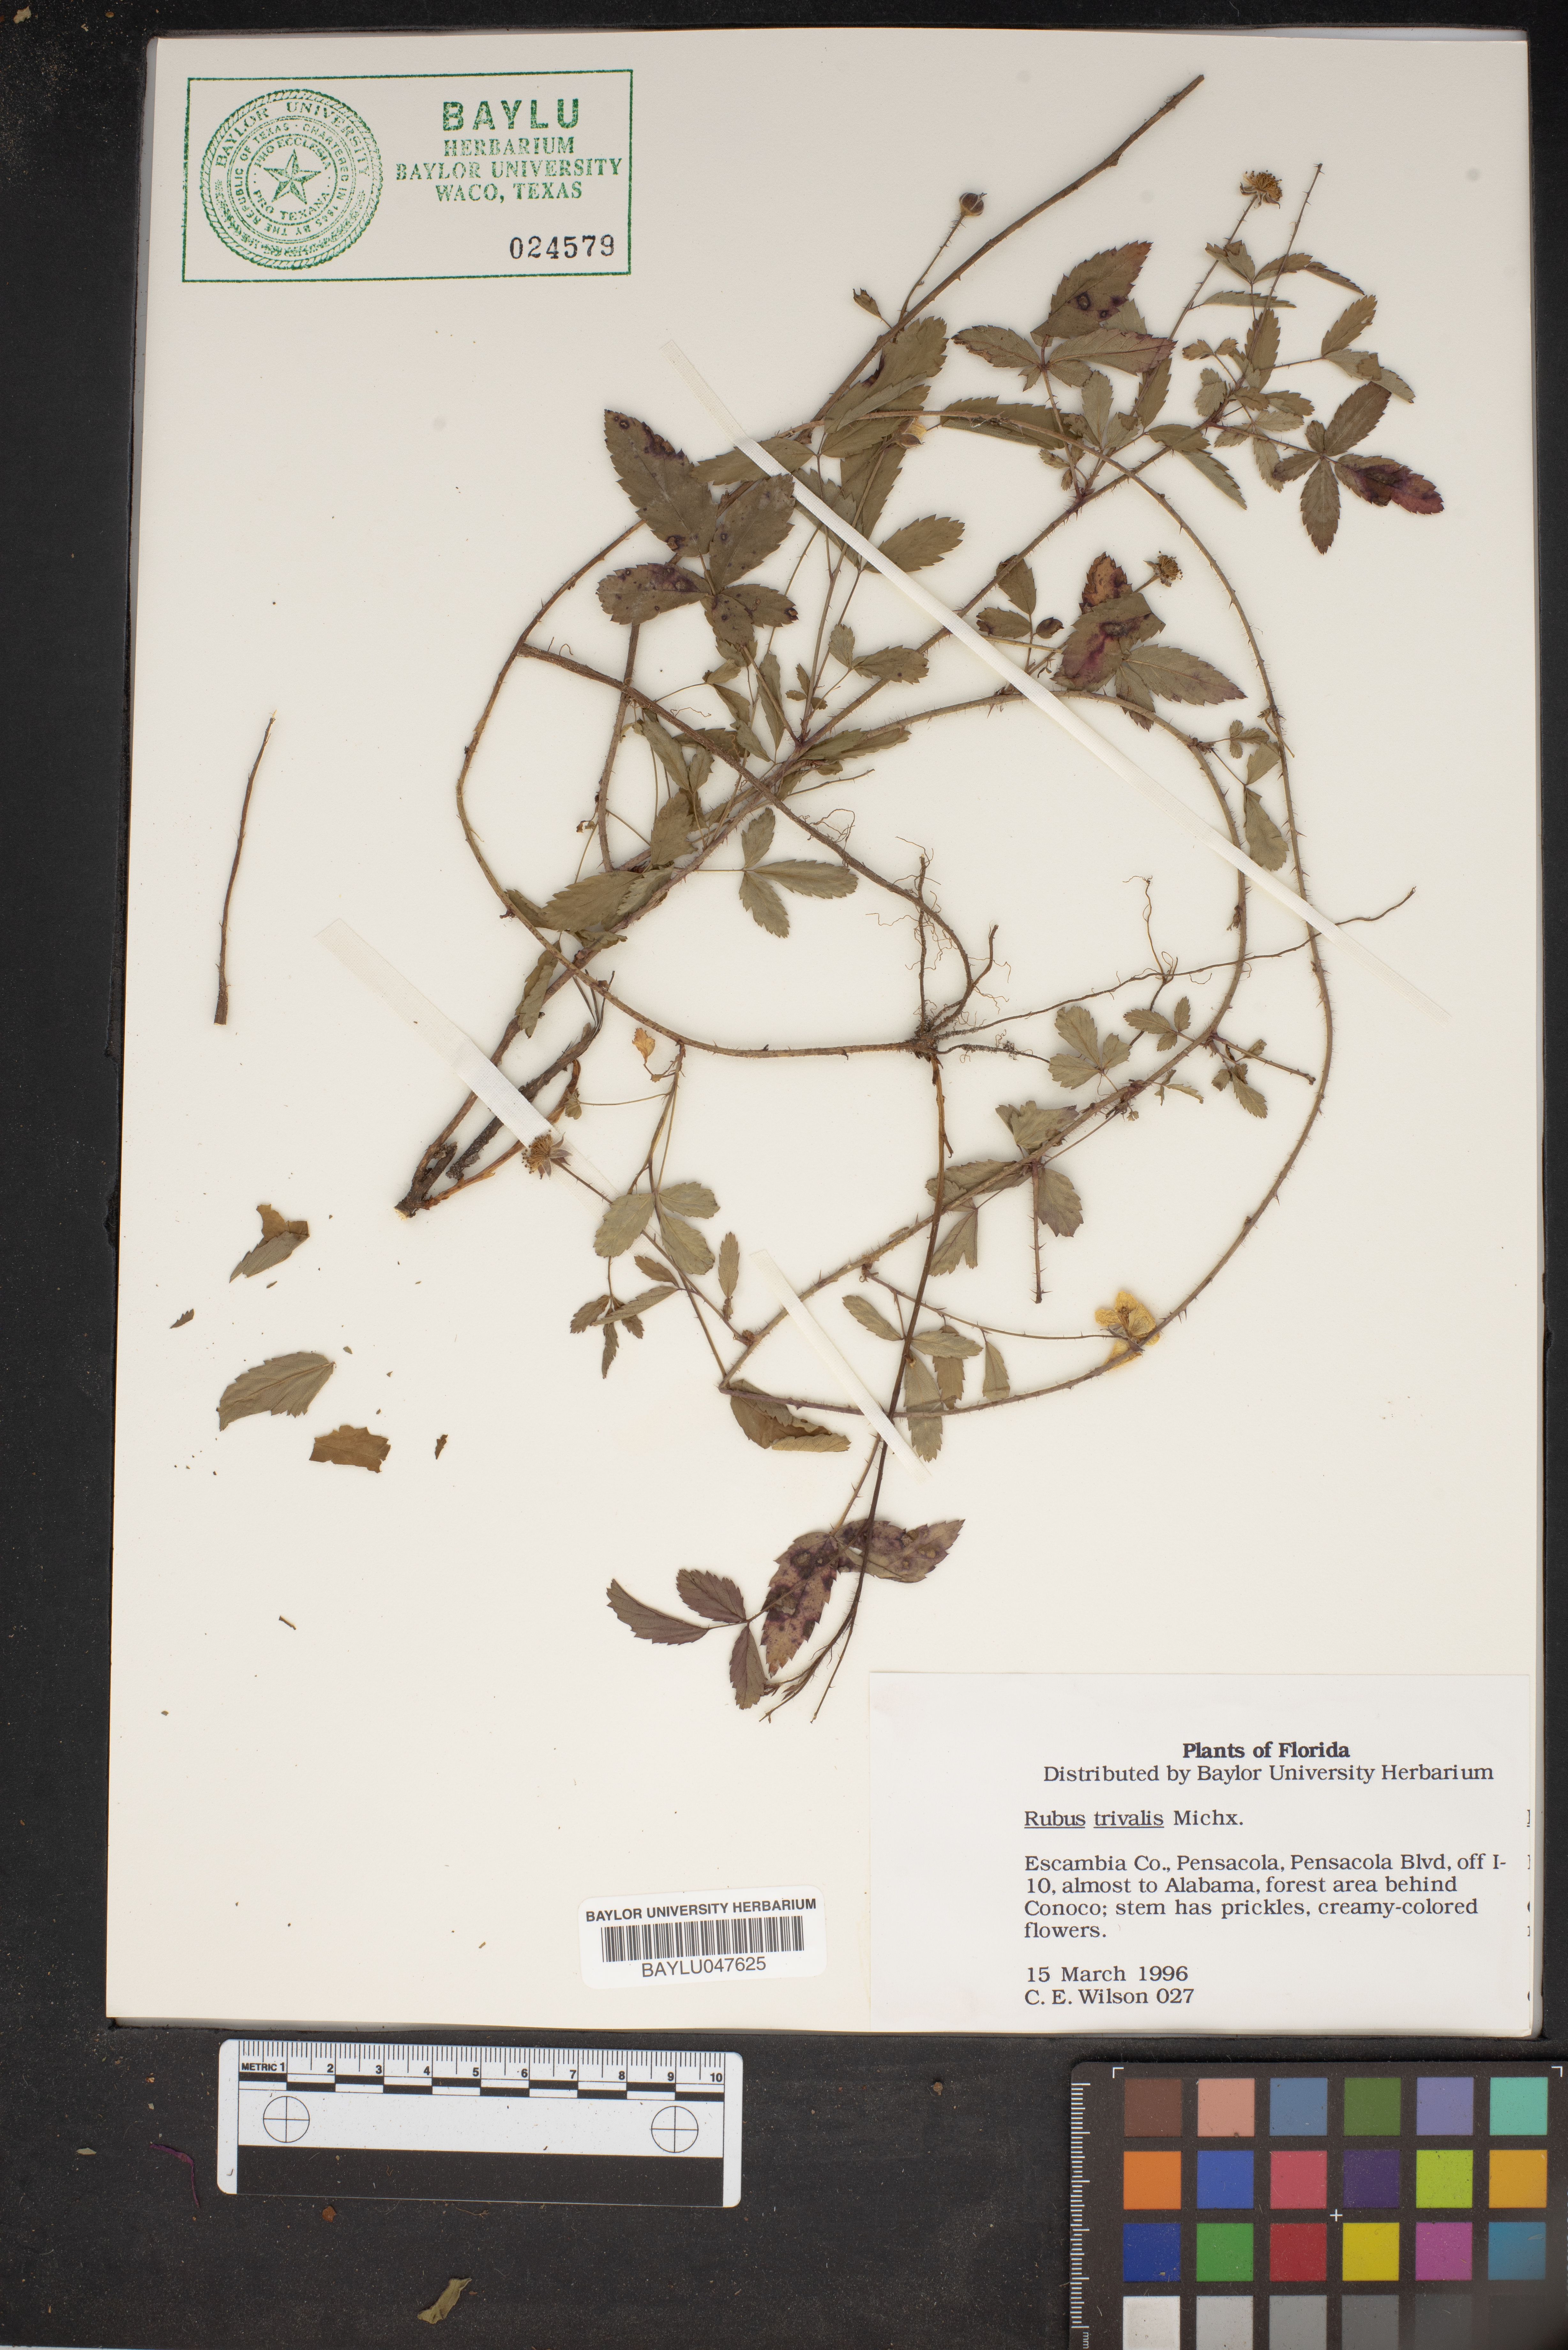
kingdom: Plantae
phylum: Tracheophyta
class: Magnoliopsida
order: Rosales
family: Rosaceae
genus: Rubus
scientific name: Rubus trivialis
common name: Southern dewberry
